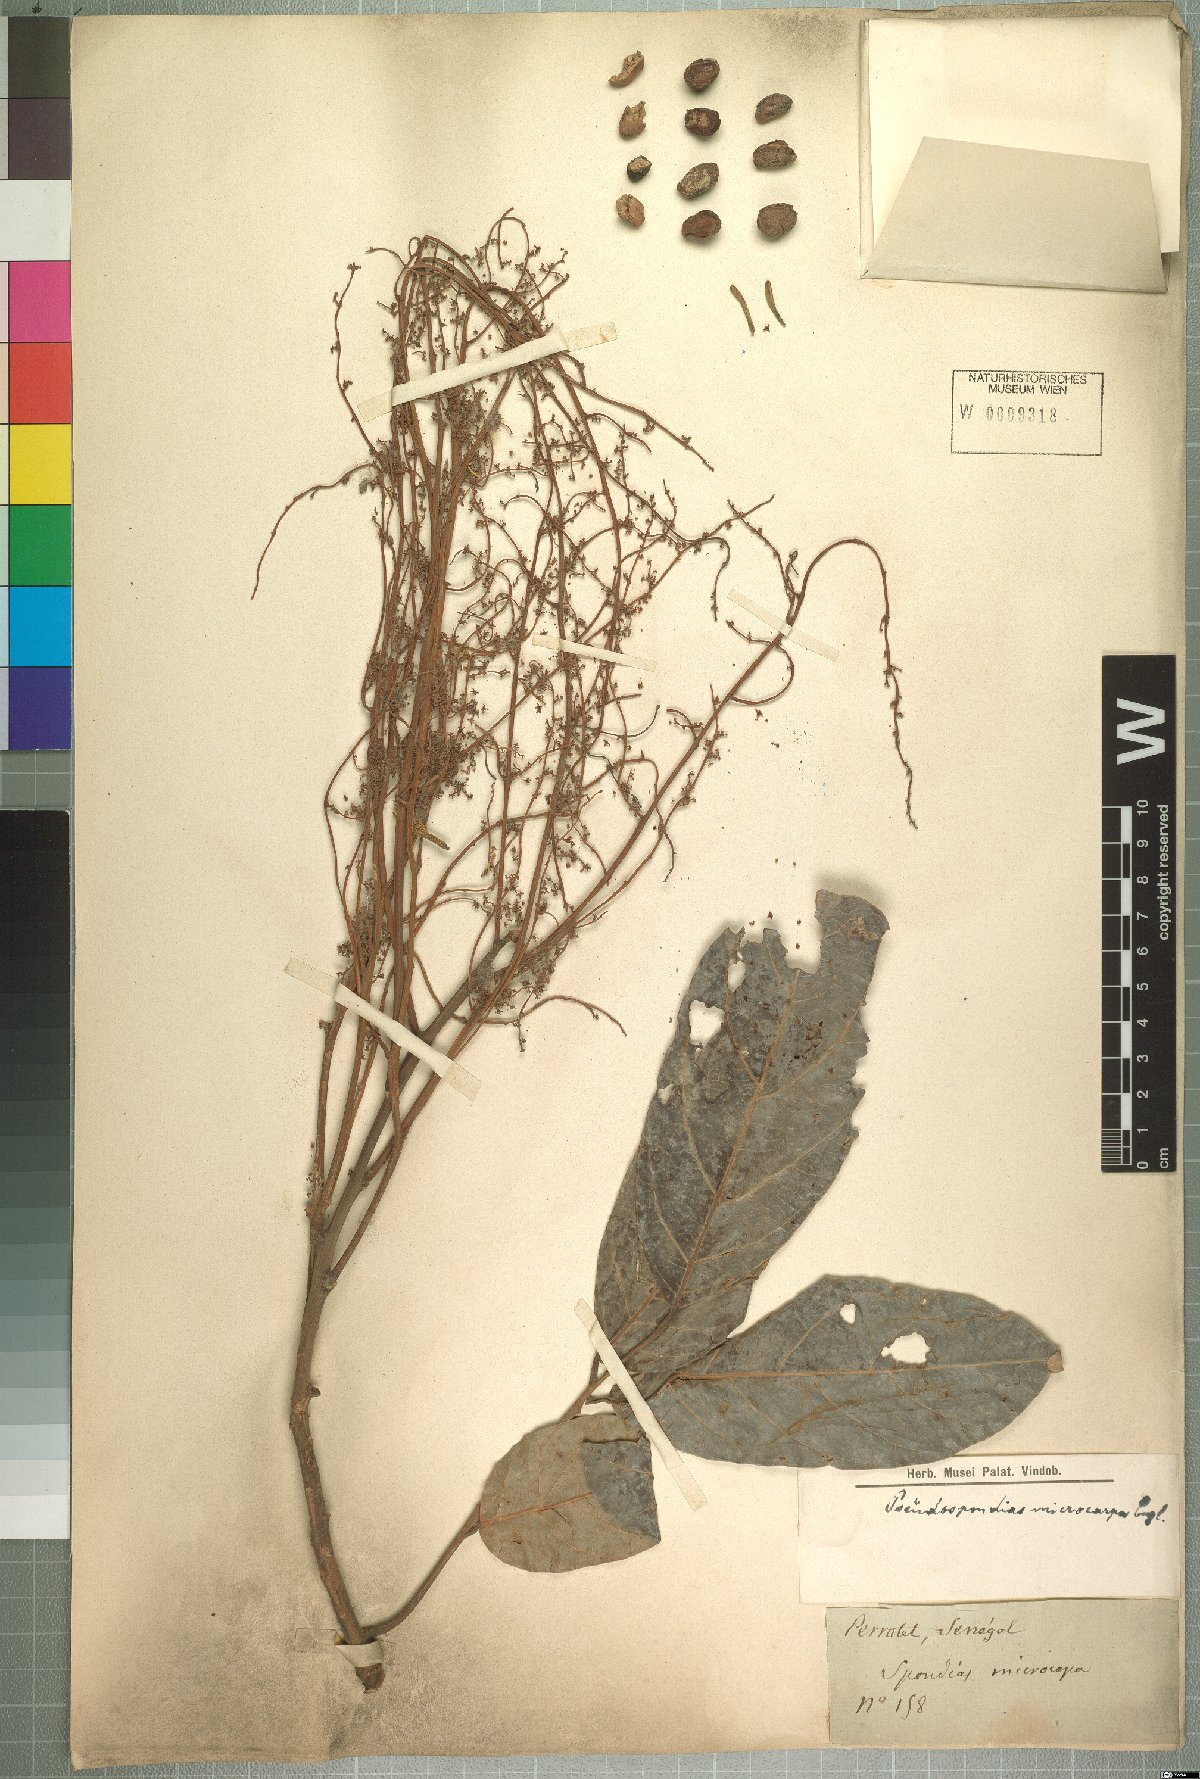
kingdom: Plantae
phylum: Tracheophyta
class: Magnoliopsida
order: Sapindales
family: Anacardiaceae
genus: Pseudospondias
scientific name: Pseudospondias microcarpa
